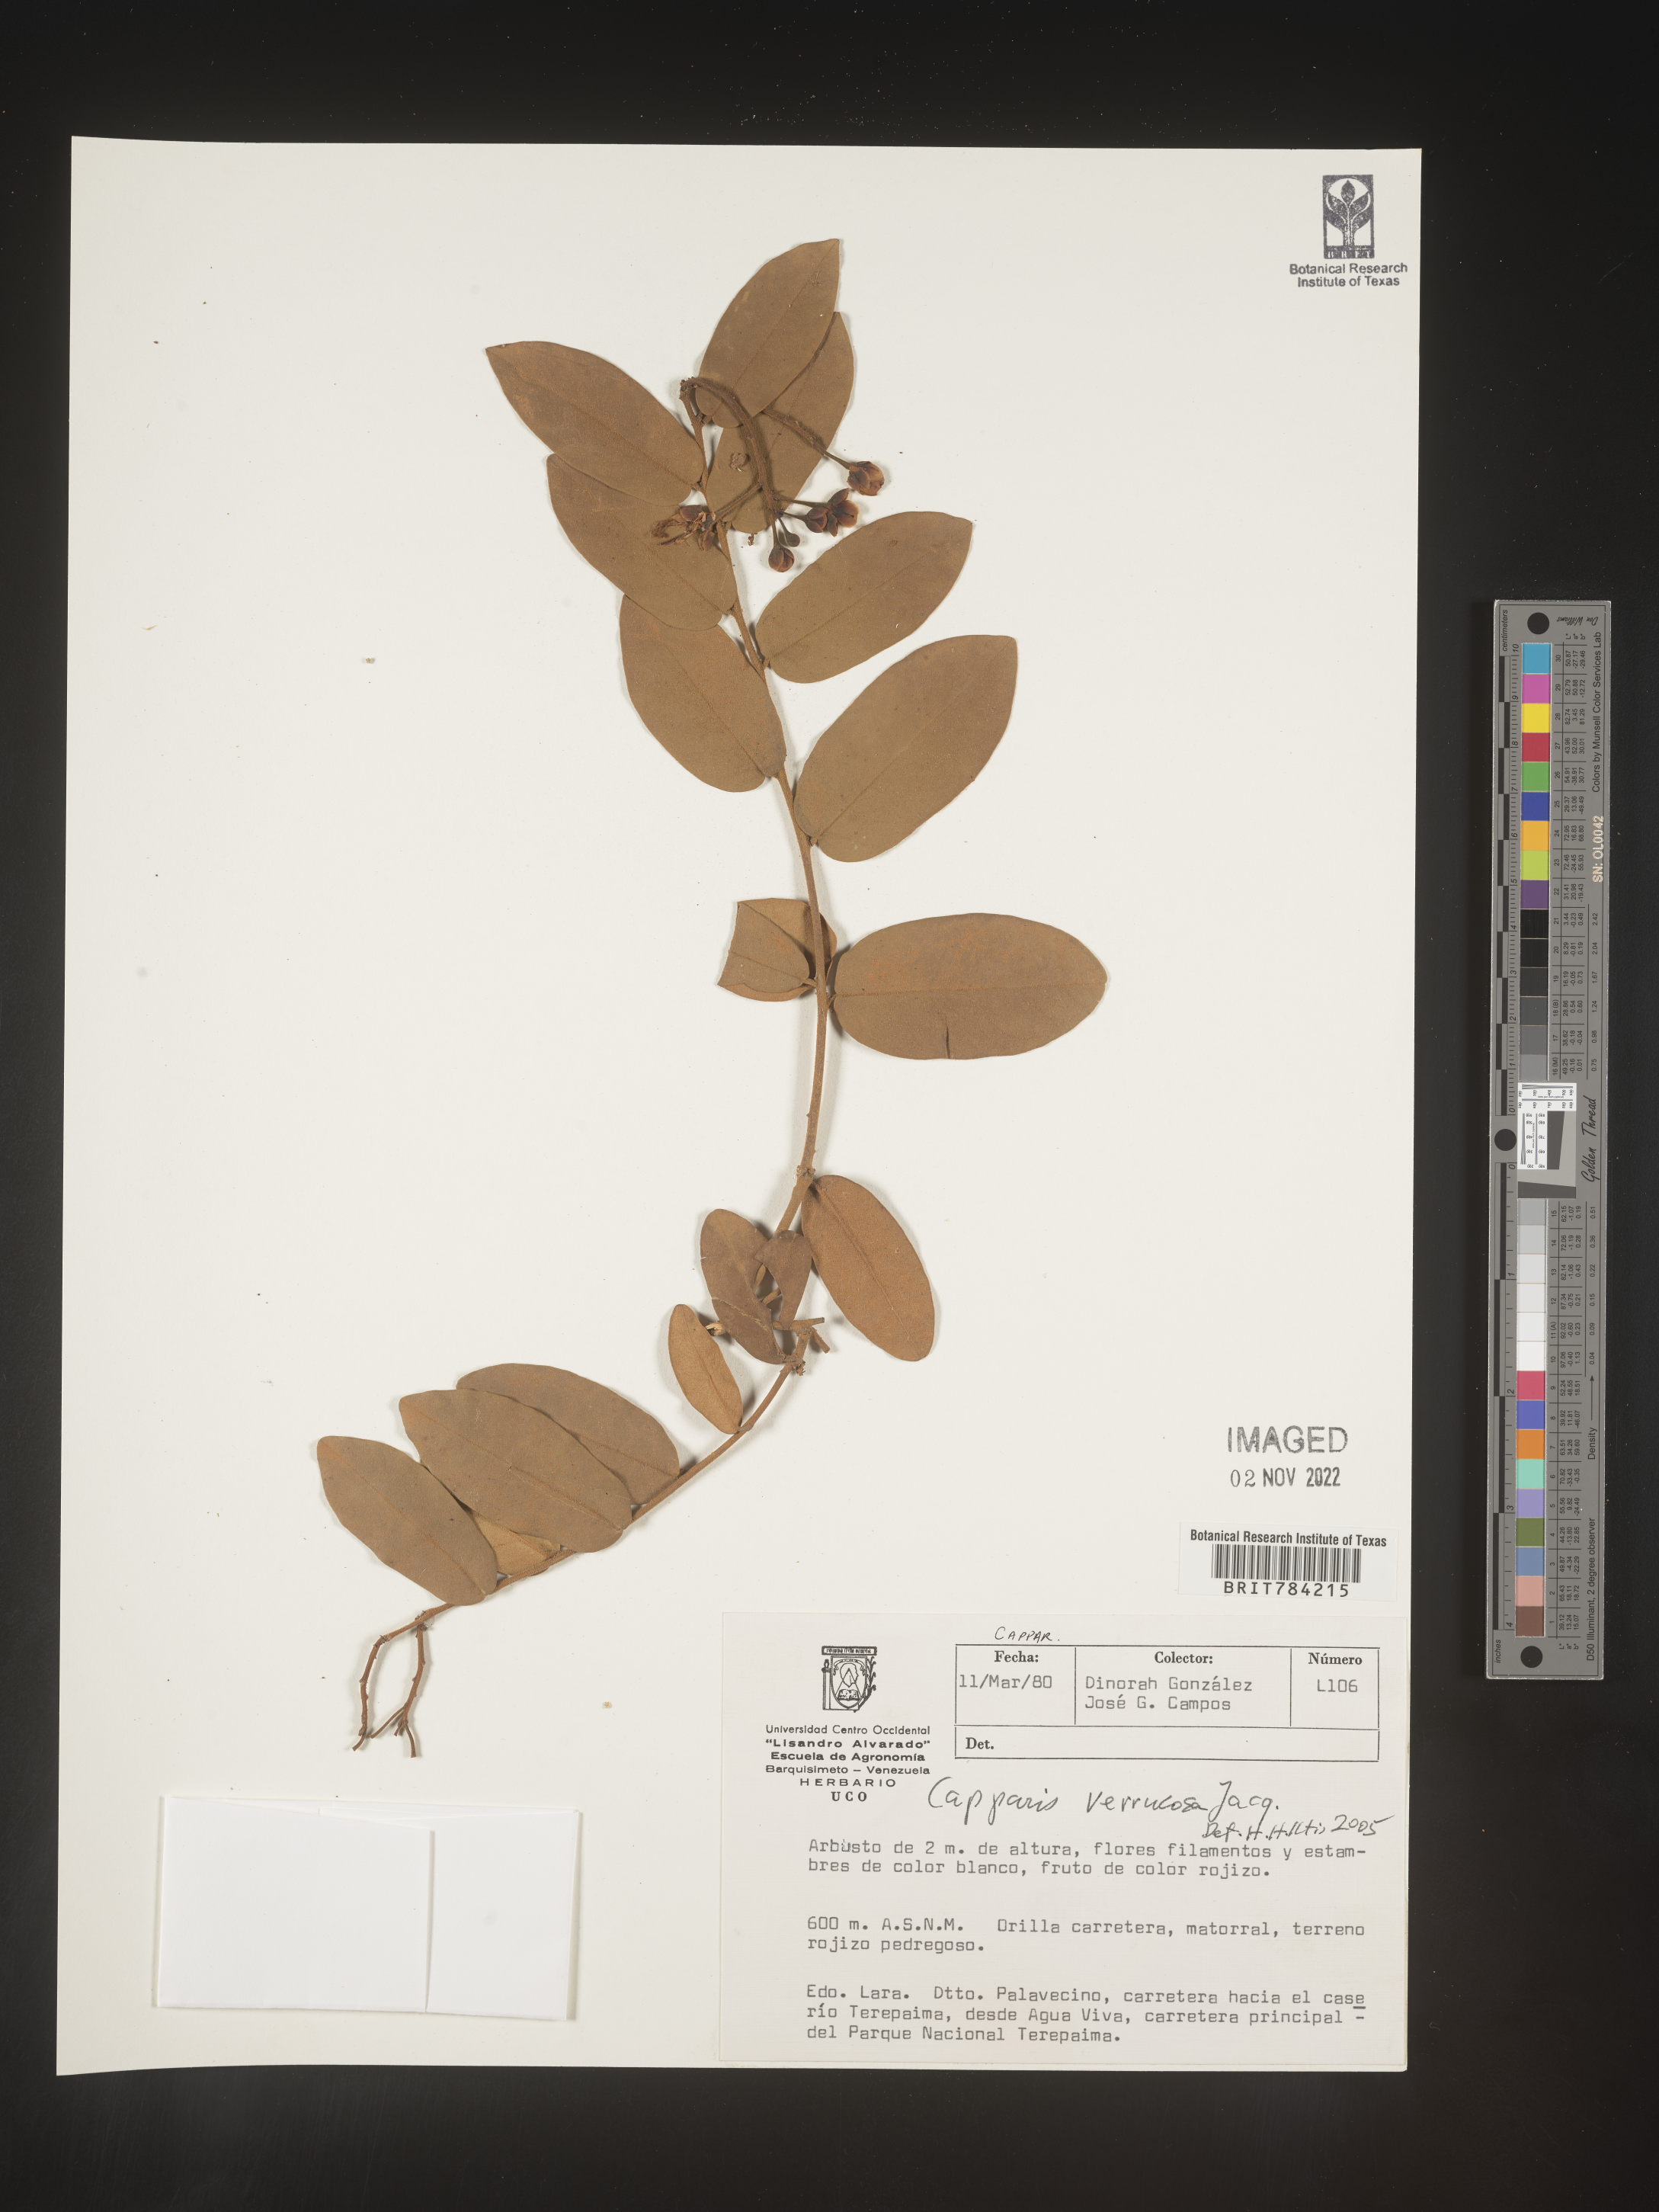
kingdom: Plantae
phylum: Tracheophyta
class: Magnoliopsida
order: Brassicales
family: Capparaceae
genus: Capparis
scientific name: Capparis
